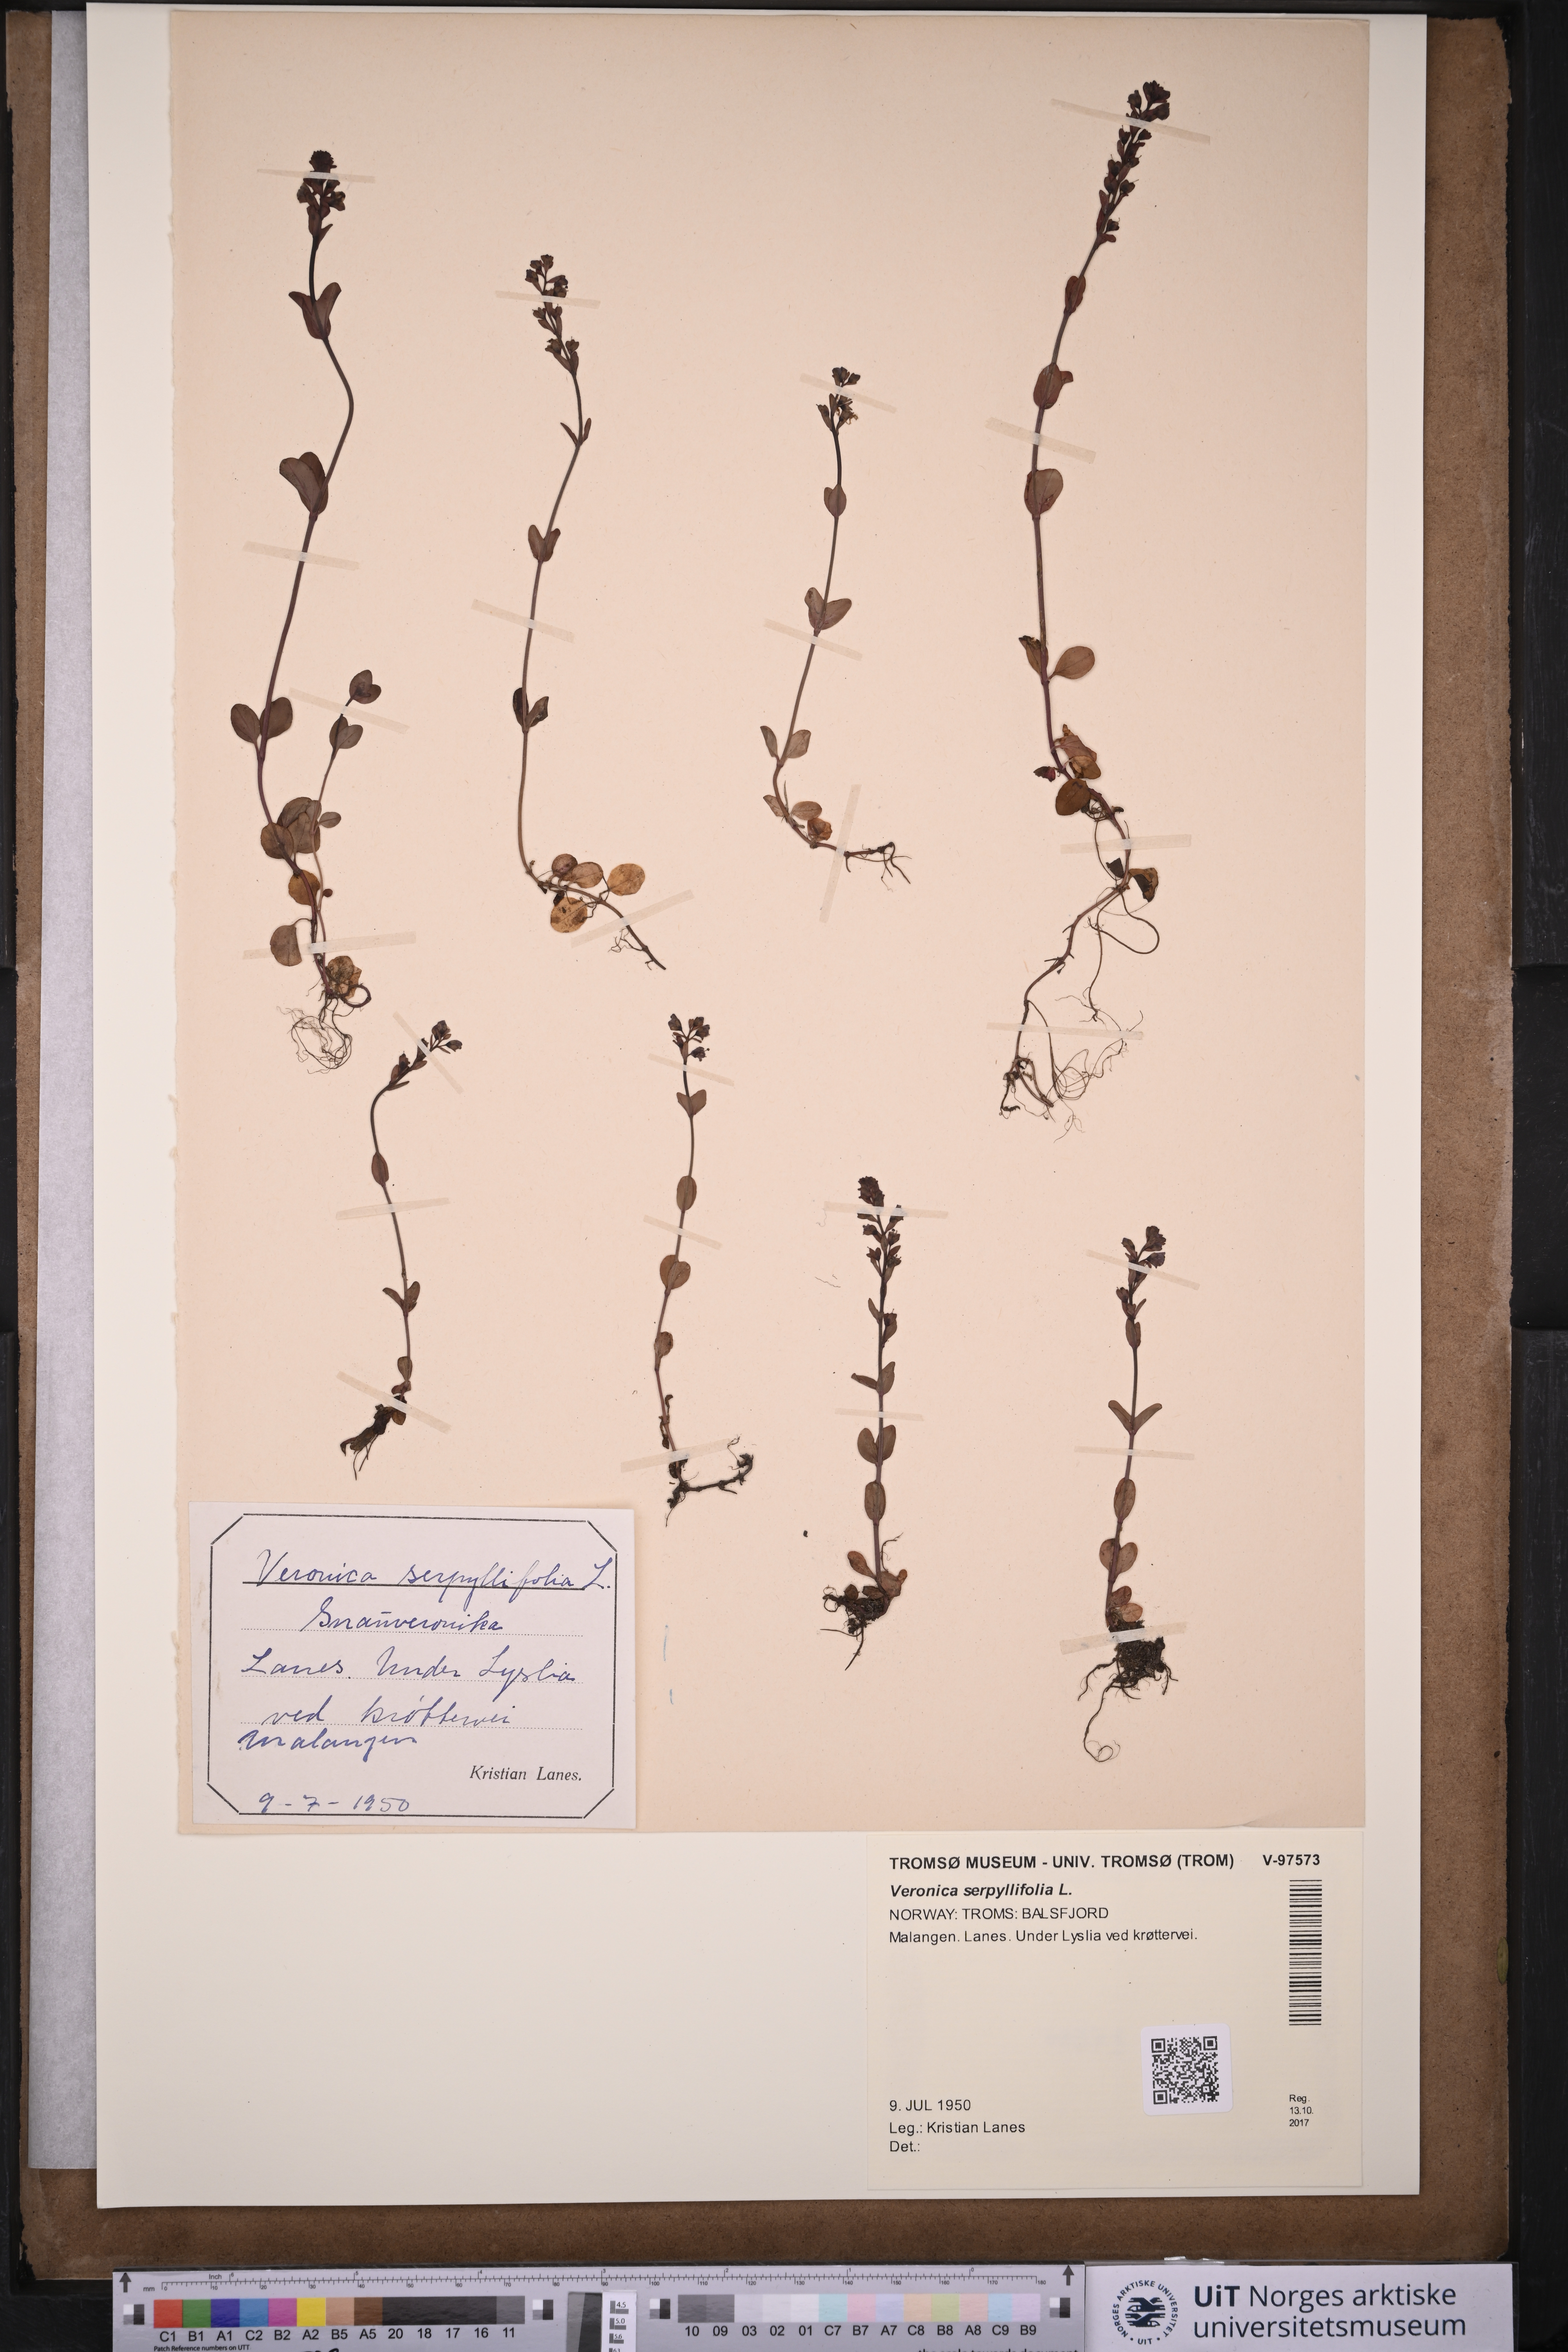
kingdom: Plantae
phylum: Tracheophyta
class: Magnoliopsida
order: Lamiales
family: Plantaginaceae
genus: Veronica
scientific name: Veronica serpyllifolia
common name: Thyme-leaved speedwell
